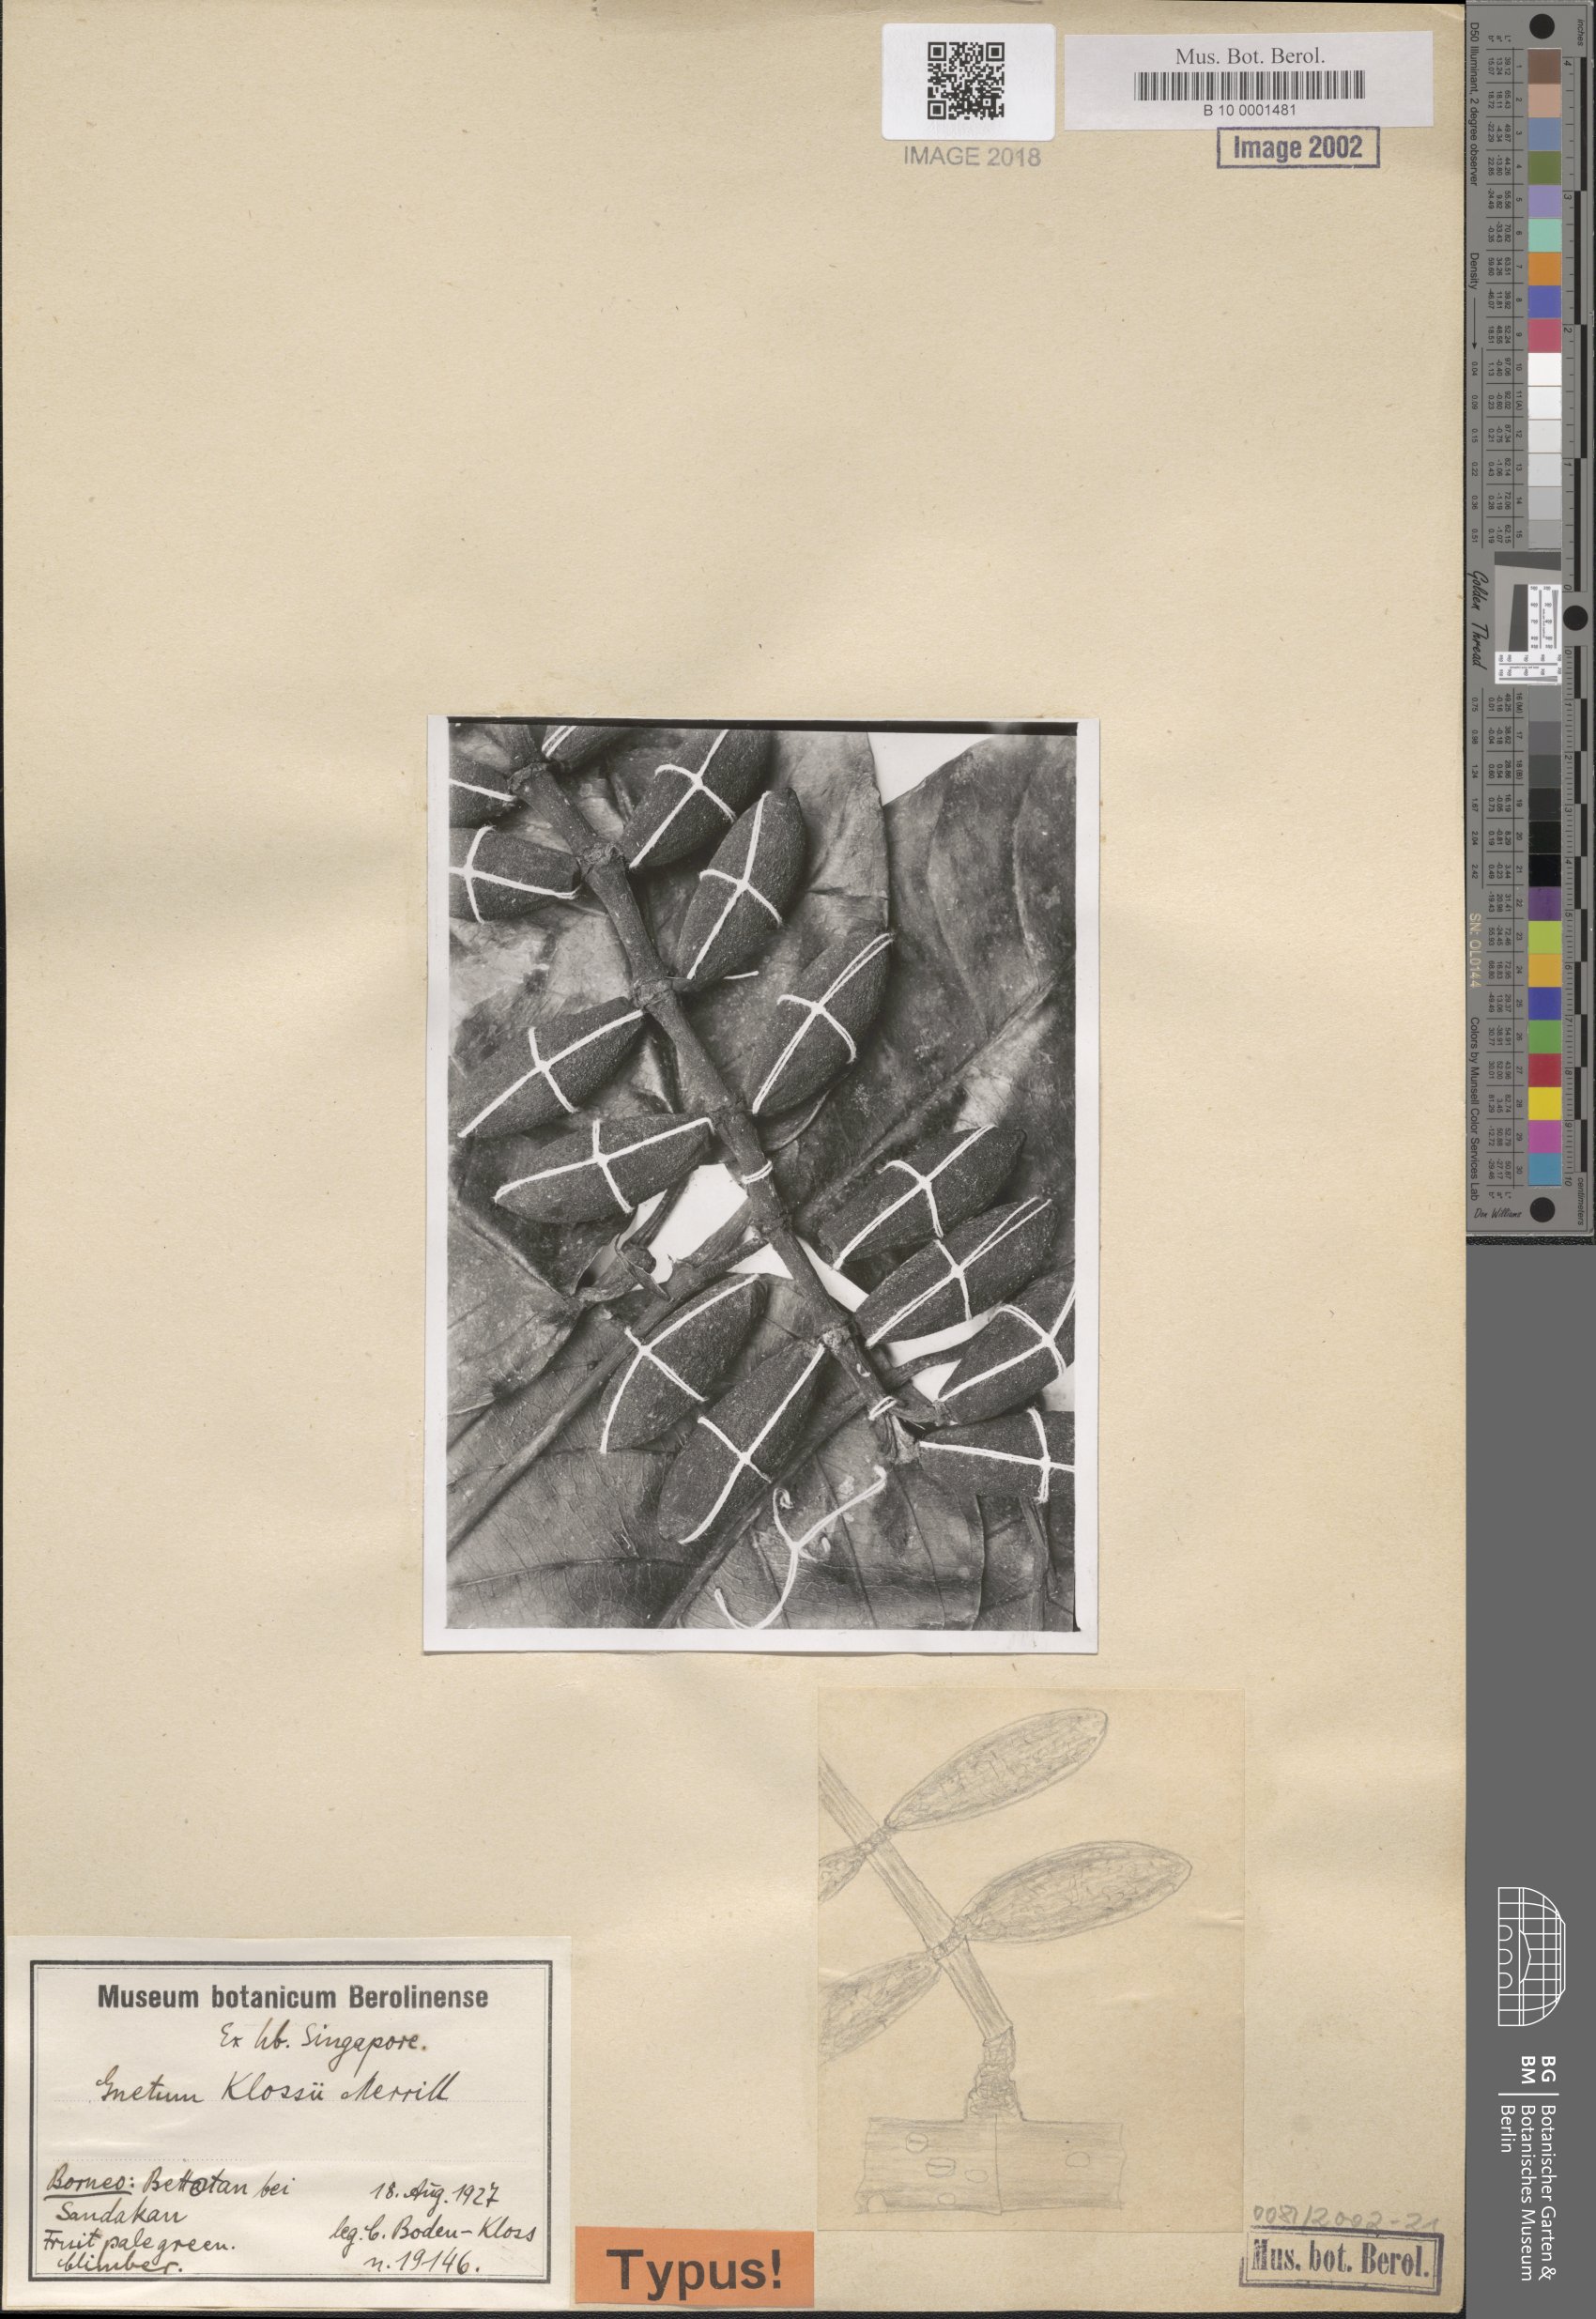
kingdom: Plantae
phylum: Tracheophyta
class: Gnetopsida
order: Gnetales
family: Gnetaceae
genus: Gnetum
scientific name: Gnetum klossii
